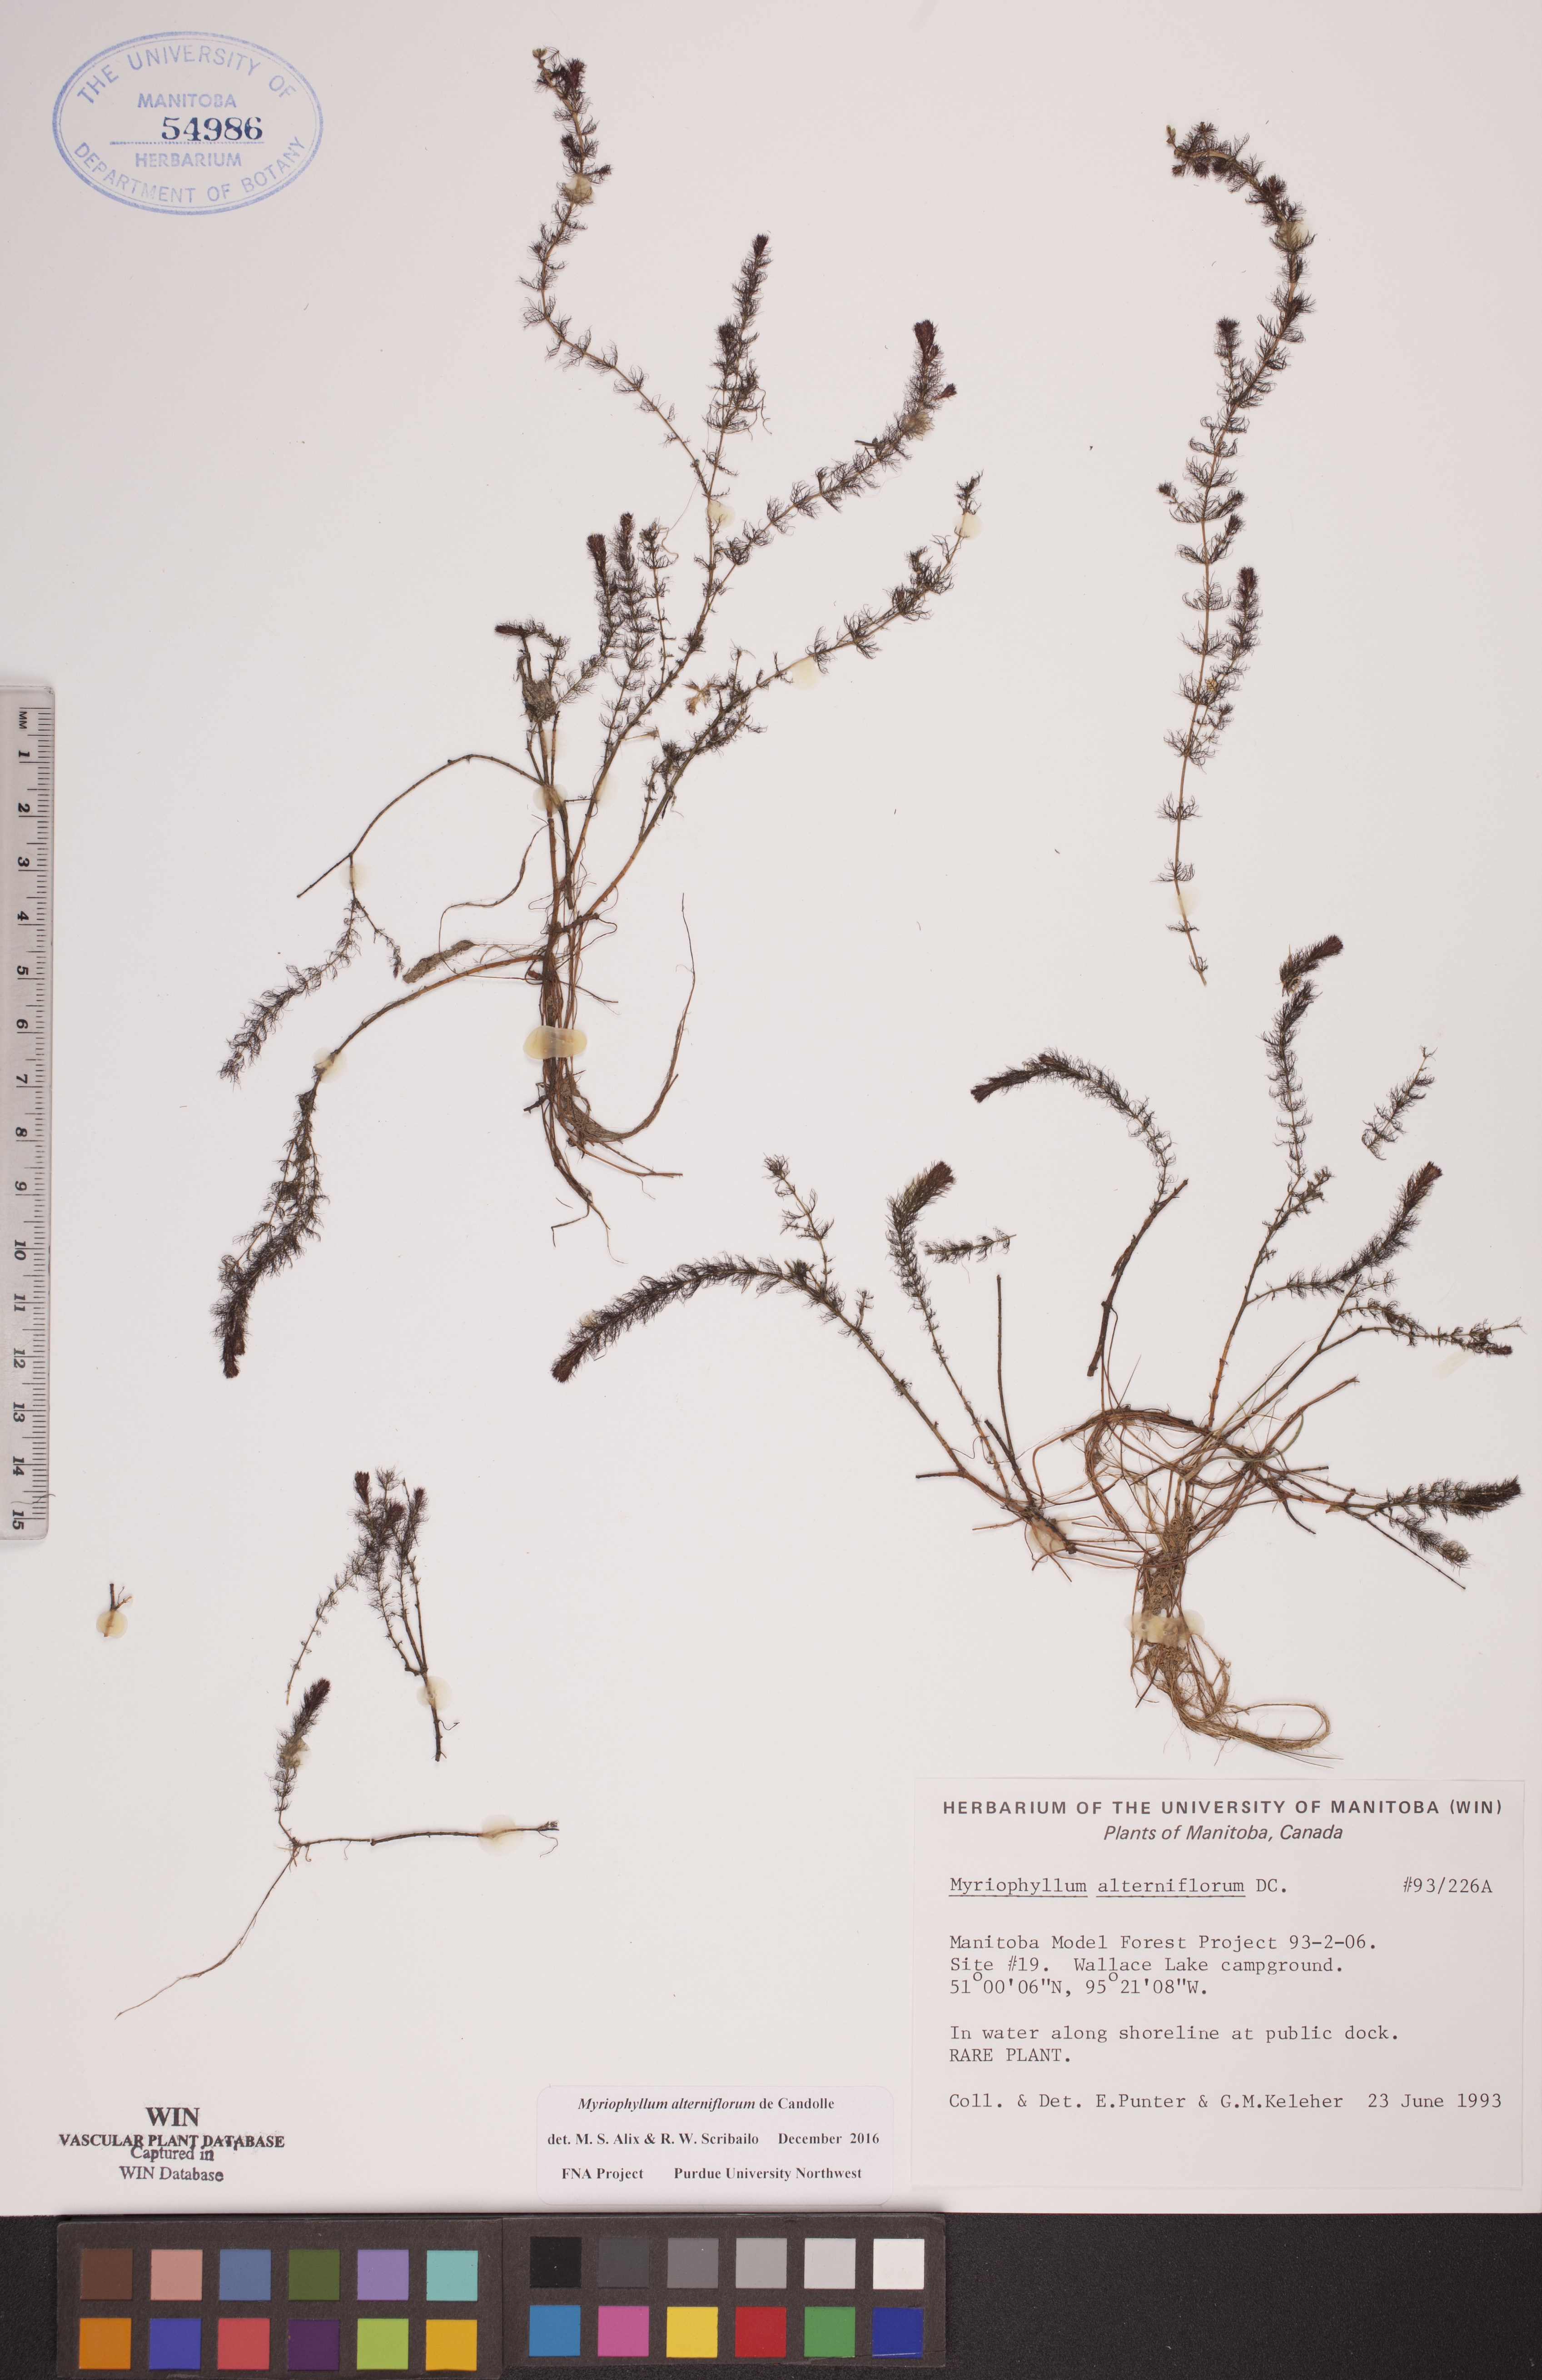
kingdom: Plantae
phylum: Tracheophyta
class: Magnoliopsida
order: Saxifragales
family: Haloragaceae
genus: Myriophyllum
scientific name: Myriophyllum alterniflorum
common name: Alternate water-milfoil
